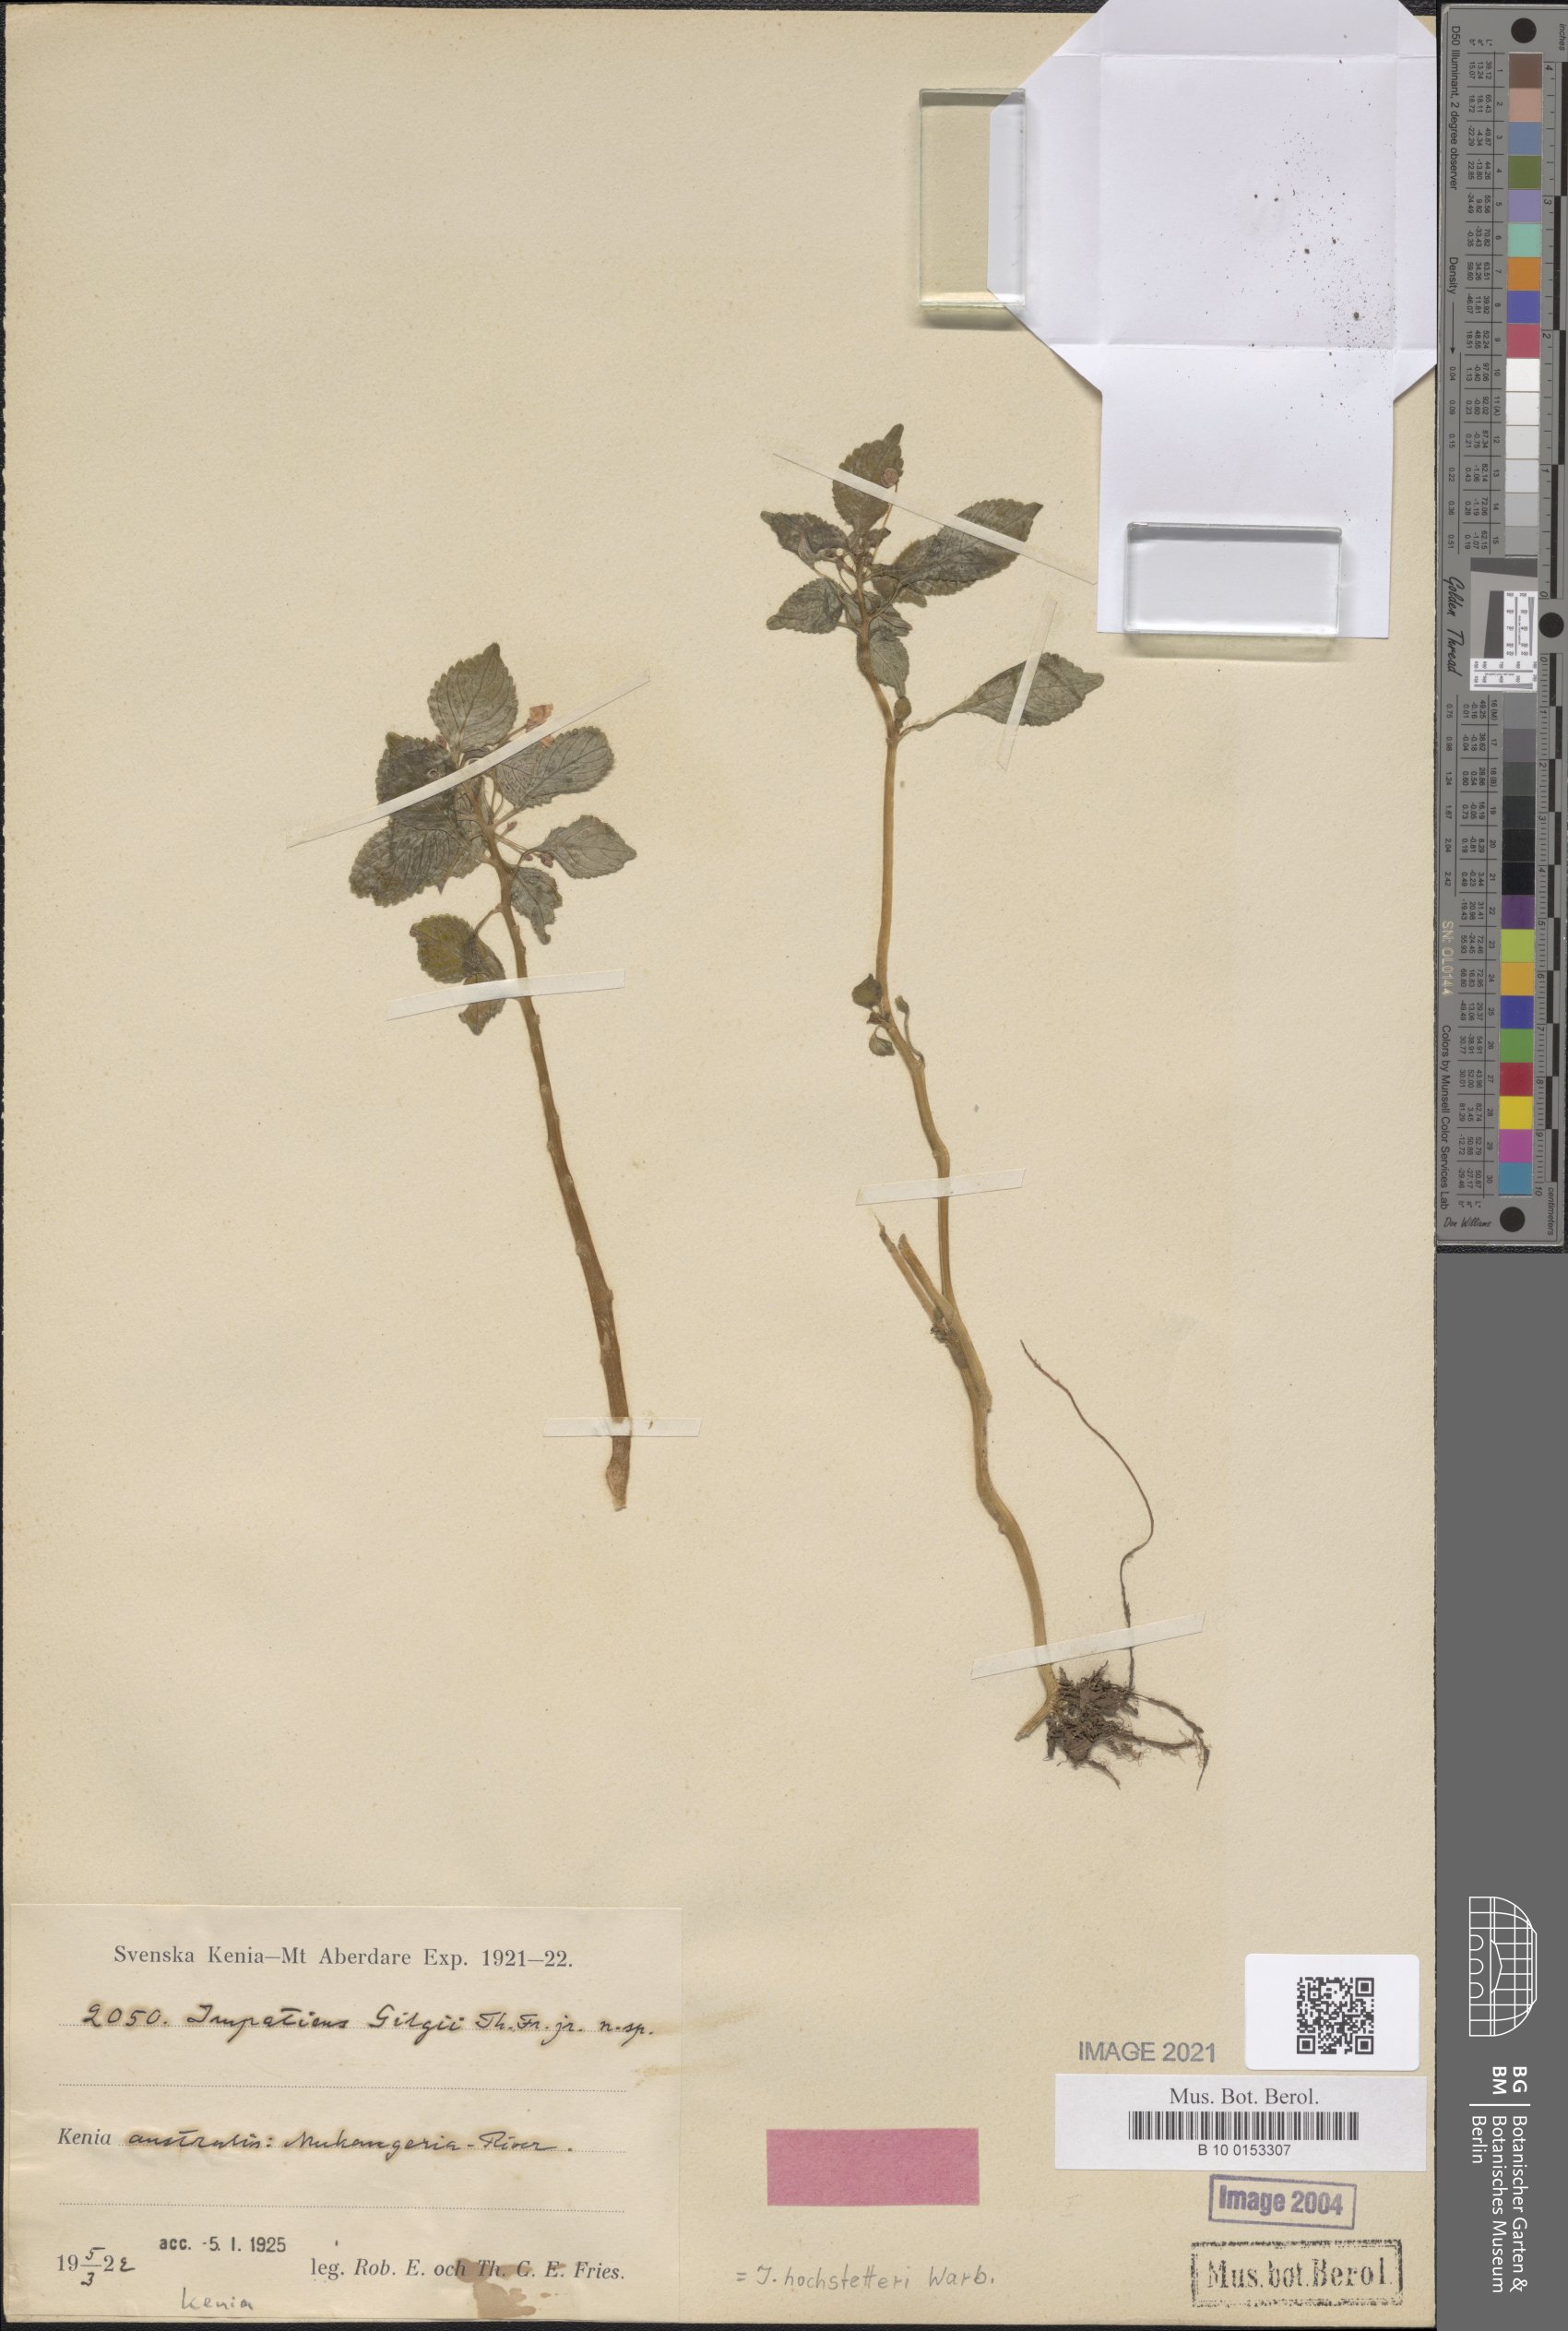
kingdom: Plantae
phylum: Tracheophyta
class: Magnoliopsida
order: Ericales
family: Balsaminaceae
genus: Impatiens
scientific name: Impatiens hochstetteri
